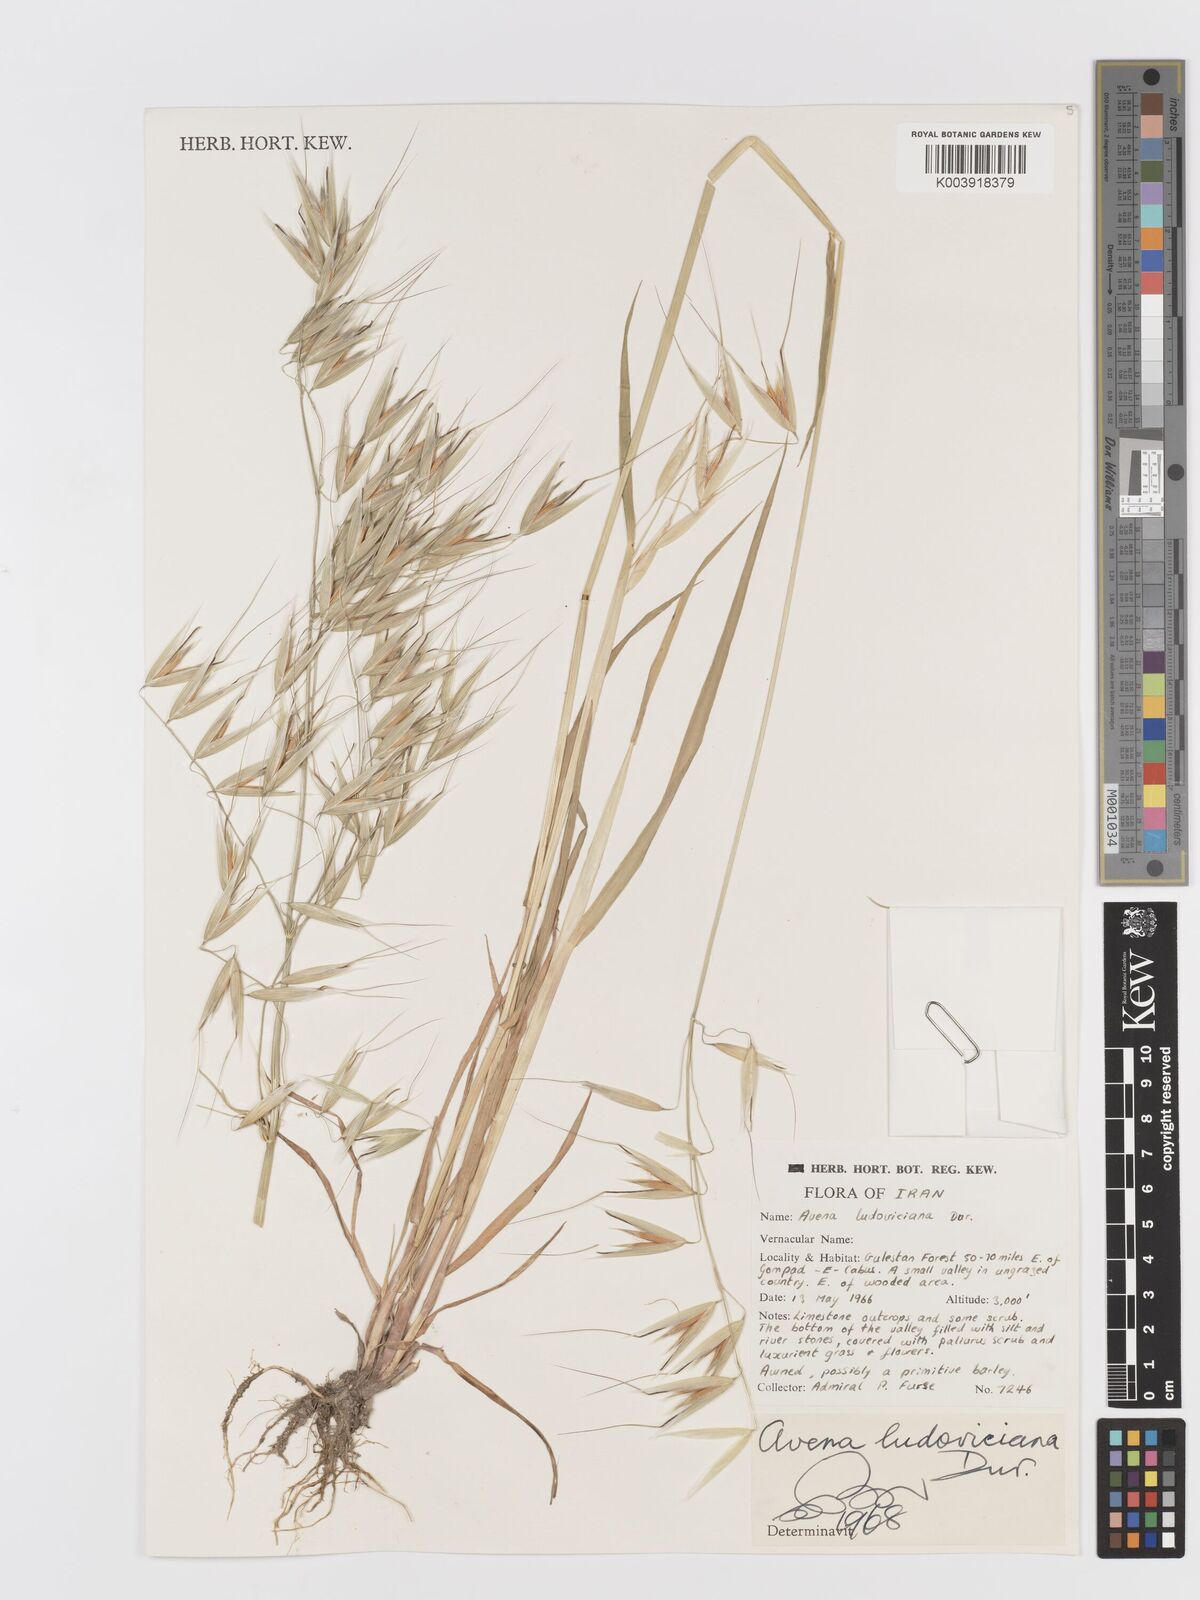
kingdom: Plantae
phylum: Tracheophyta
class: Liliopsida
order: Poales
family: Poaceae
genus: Avena
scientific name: Avena sterilis
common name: Animated oat
